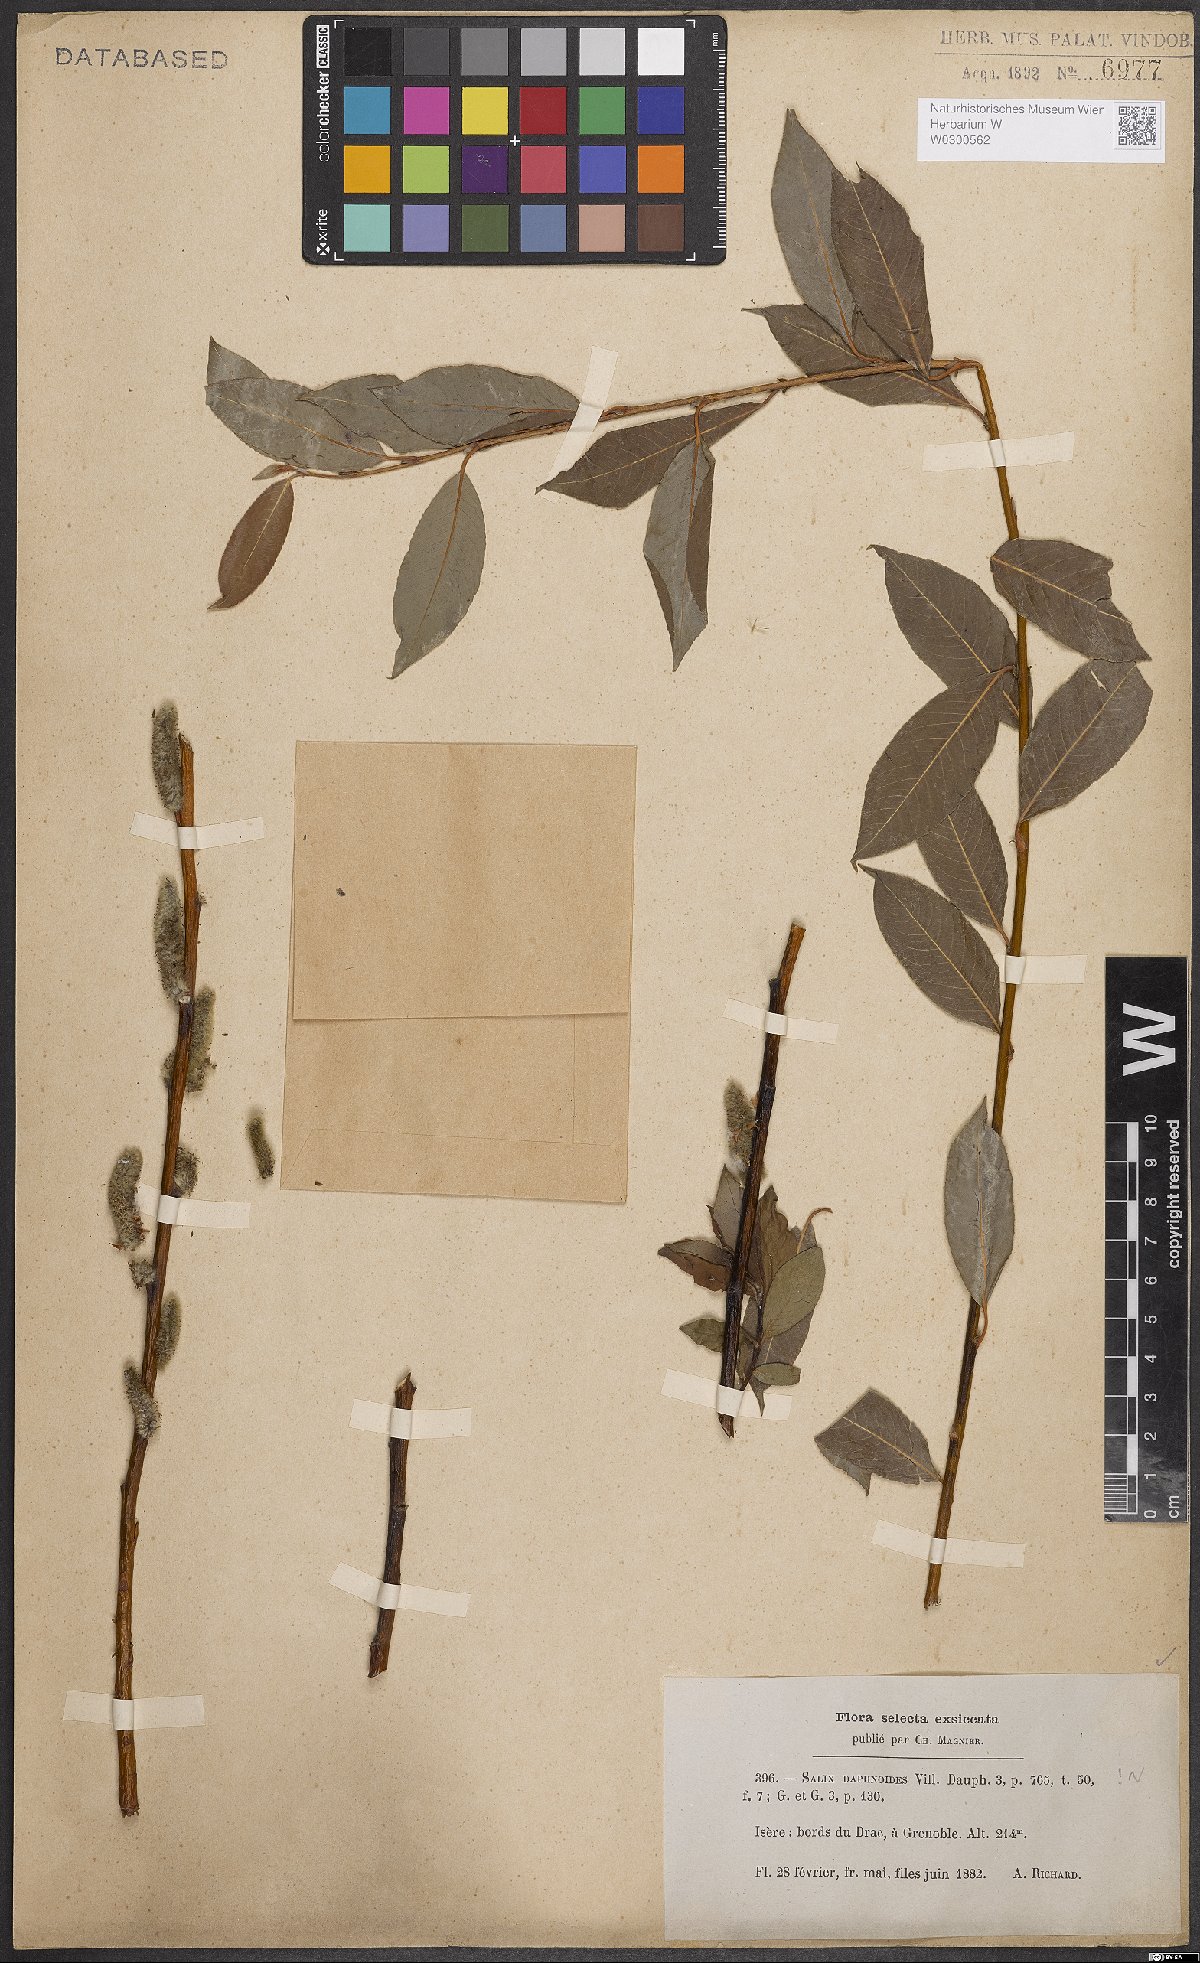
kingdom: Plantae
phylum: Tracheophyta
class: Magnoliopsida
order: Malpighiales
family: Salicaceae
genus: Salix
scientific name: Salix daphnoides
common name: European violet-willow
